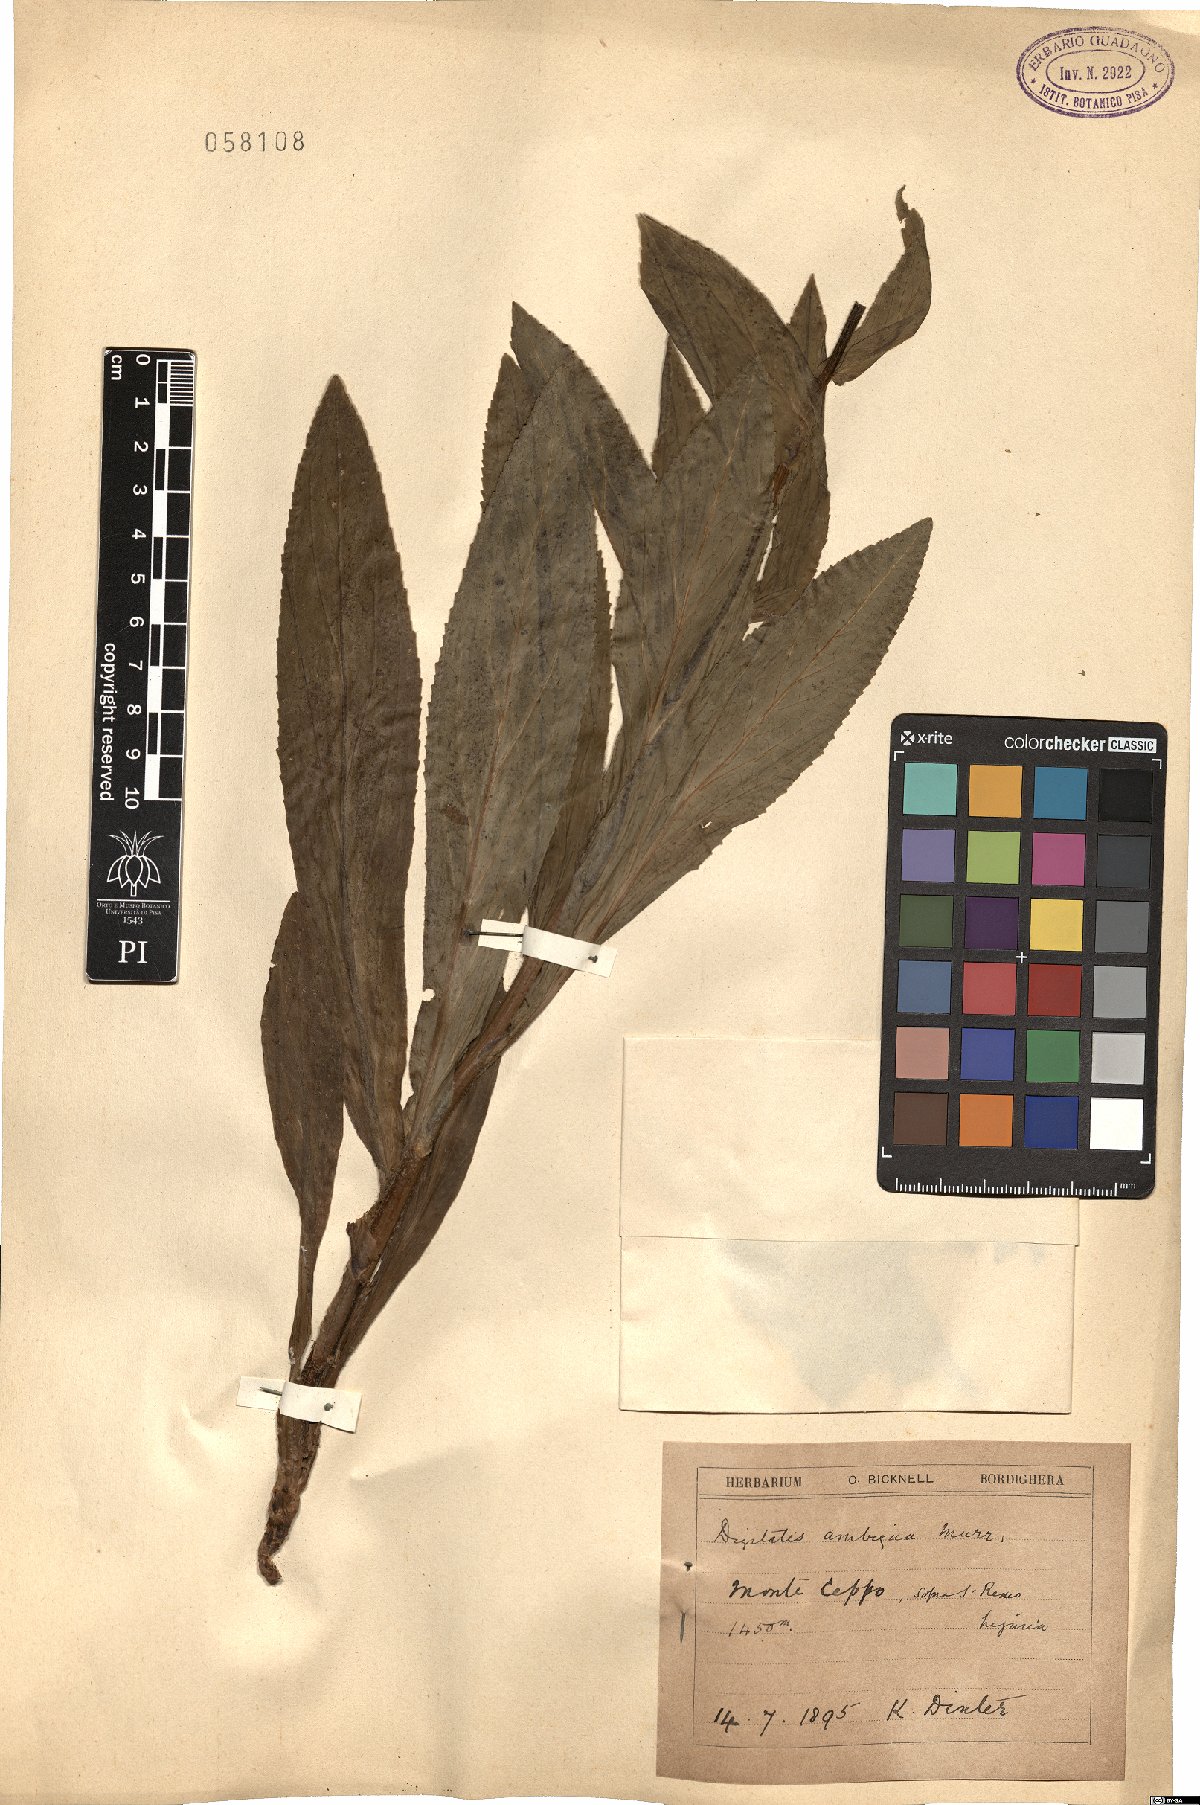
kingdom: Plantae
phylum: Tracheophyta
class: Magnoliopsida
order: Lamiales
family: Plantaginaceae
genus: Digitalis
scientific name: Digitalis grandiflora
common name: Yellow foxglove
